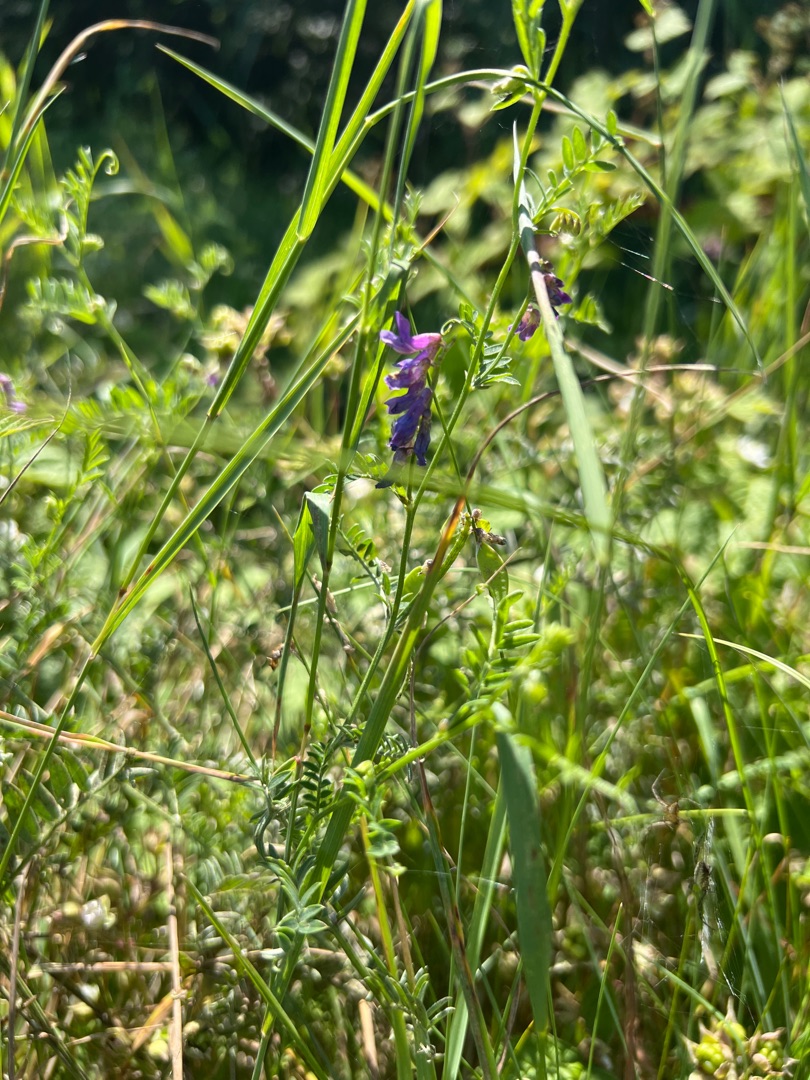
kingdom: Plantae
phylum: Tracheophyta
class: Magnoliopsida
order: Fabales
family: Fabaceae
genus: Vicia
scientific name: Vicia cracca
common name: Muse-vikke
